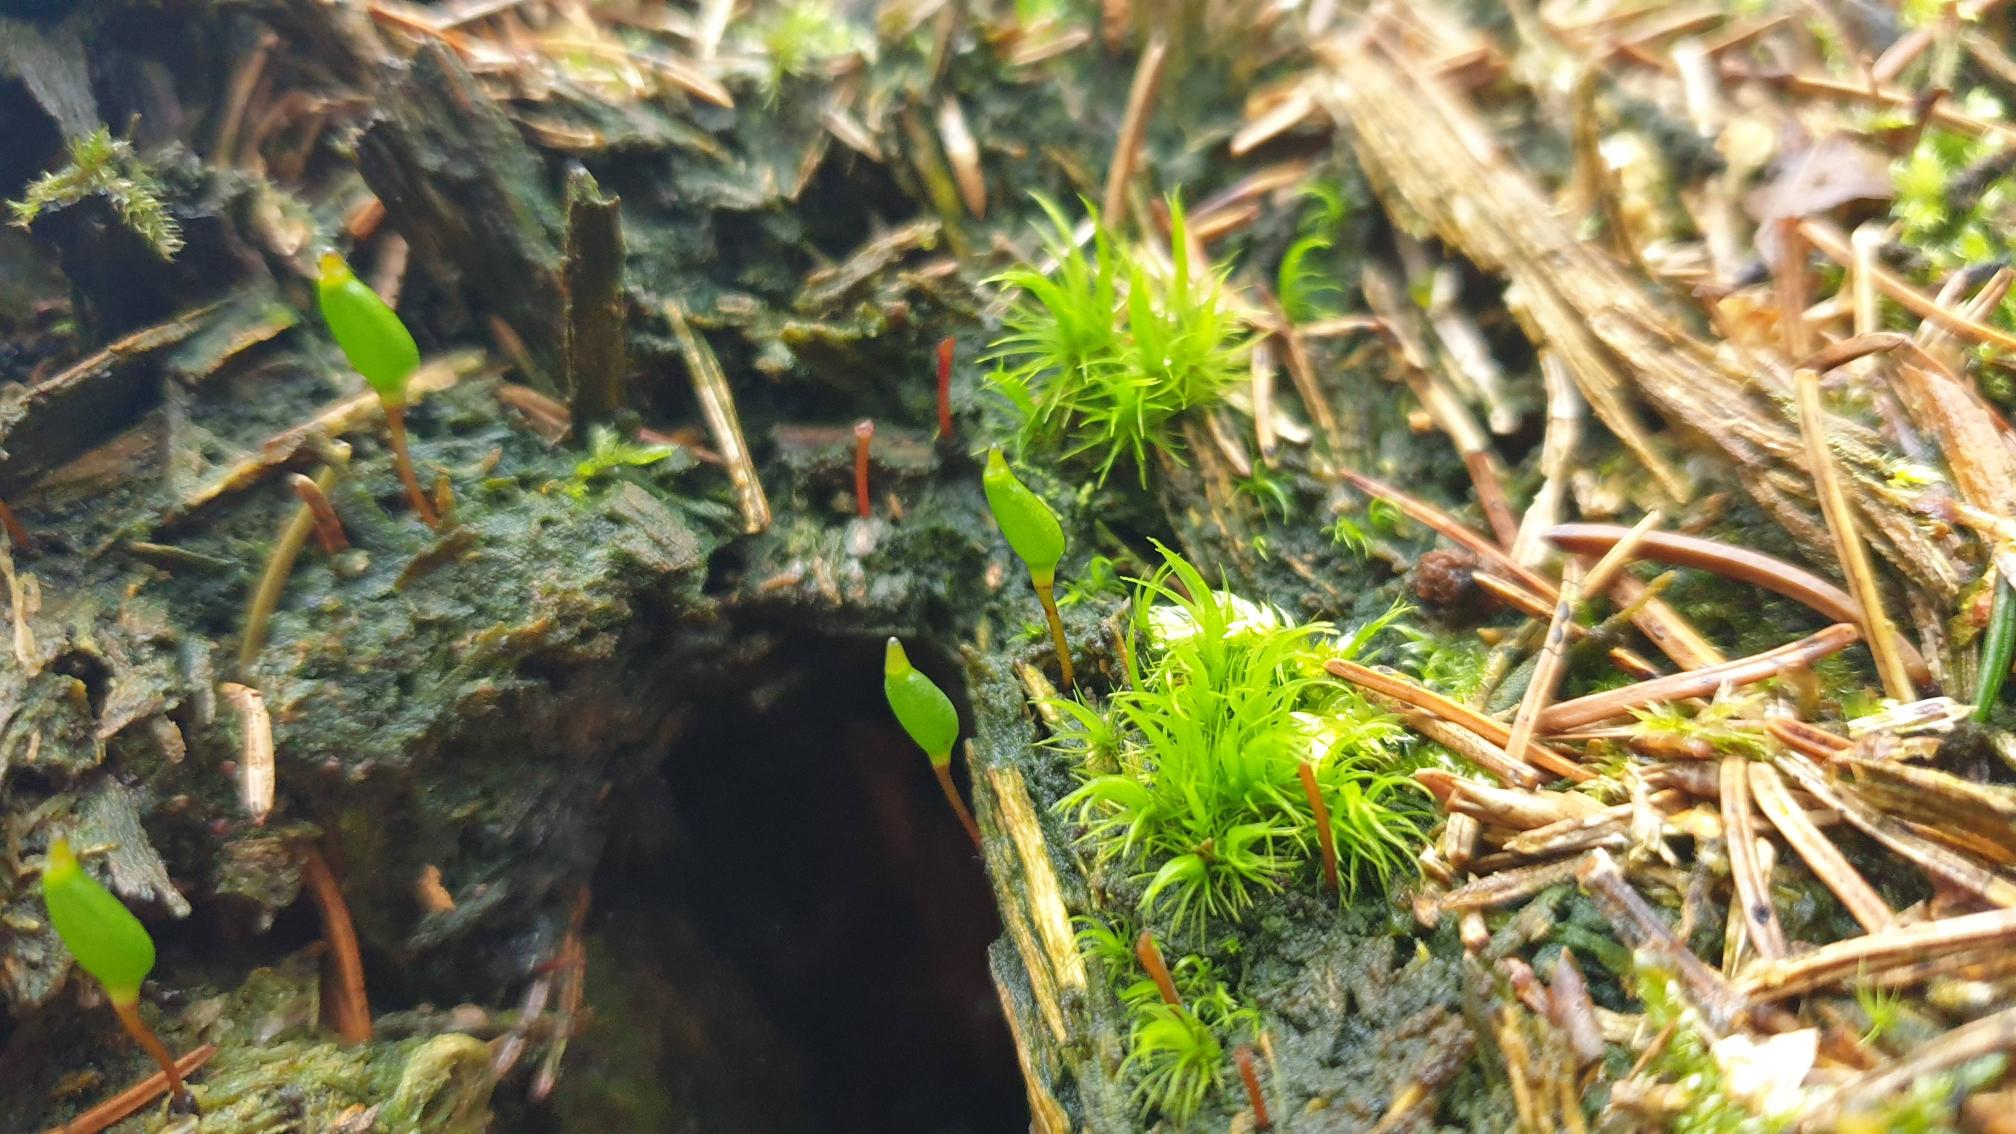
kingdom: Plantae
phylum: Bryophyta
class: Bryopsida
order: Buxbaumiales
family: Buxbaumiaceae
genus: Buxbaumia
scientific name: Buxbaumia viridis
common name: Grøn buxbaumia
